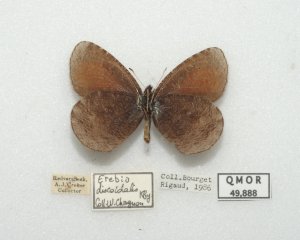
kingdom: Animalia
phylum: Arthropoda
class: Insecta
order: Lepidoptera
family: Nymphalidae
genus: Erebia
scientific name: Erebia discoidalis
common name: Red-disked Alpine
